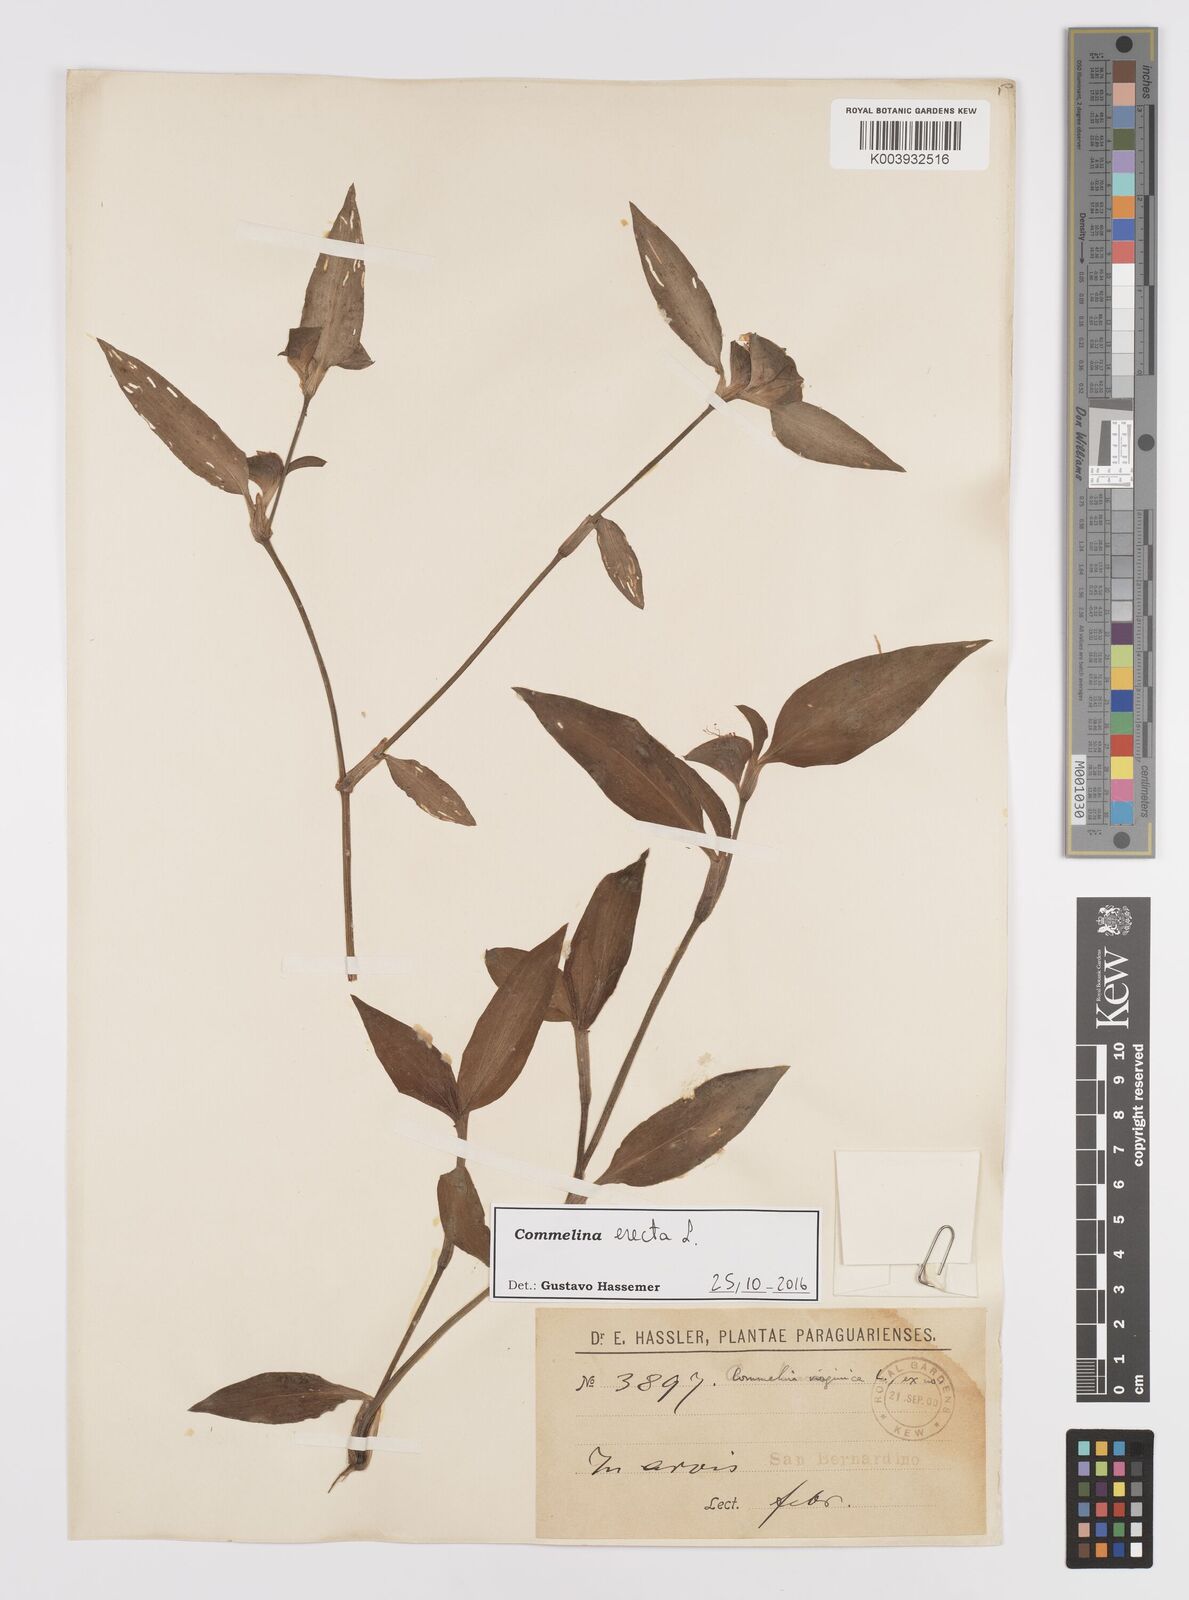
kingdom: Plantae
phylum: Tracheophyta
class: Liliopsida
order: Commelinales
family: Commelinaceae
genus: Commelina
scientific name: Commelina erecta
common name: Blousel blommetjie
